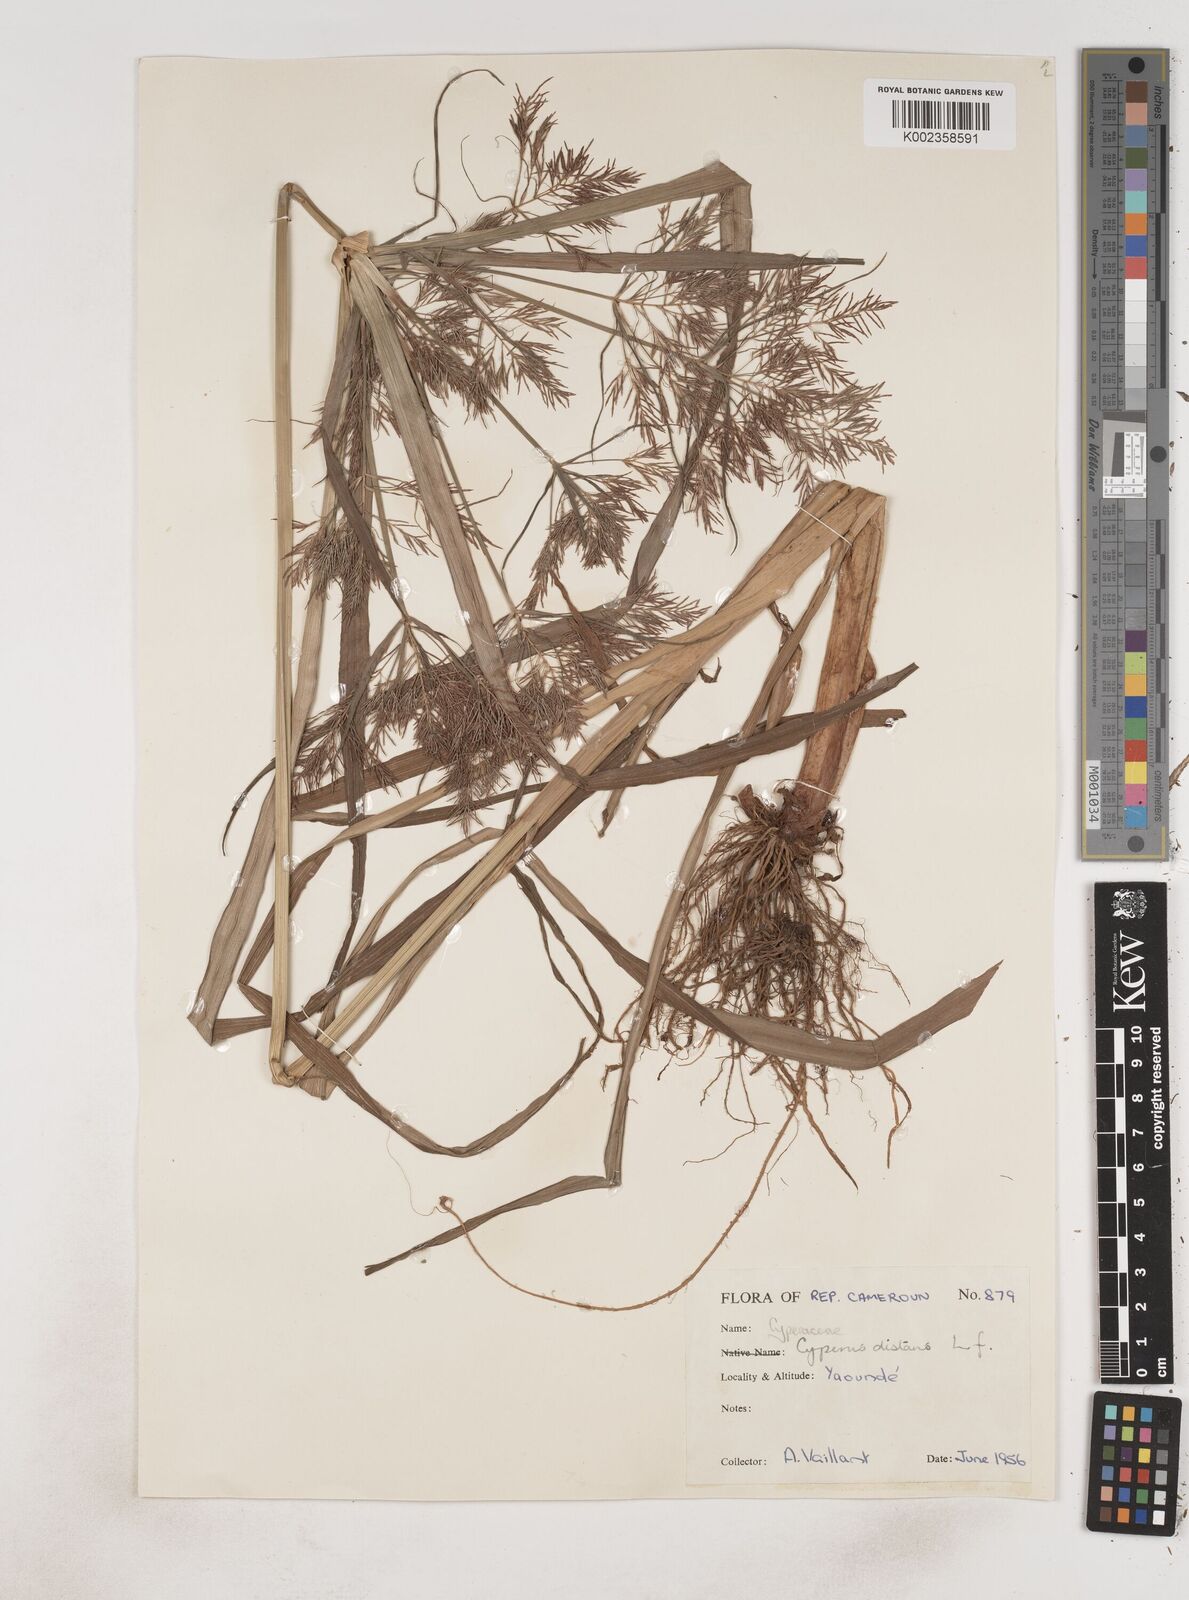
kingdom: Plantae
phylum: Tracheophyta
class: Liliopsida
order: Poales
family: Cyperaceae
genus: Cyperus
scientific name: Cyperus distans
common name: Slender cyperus
